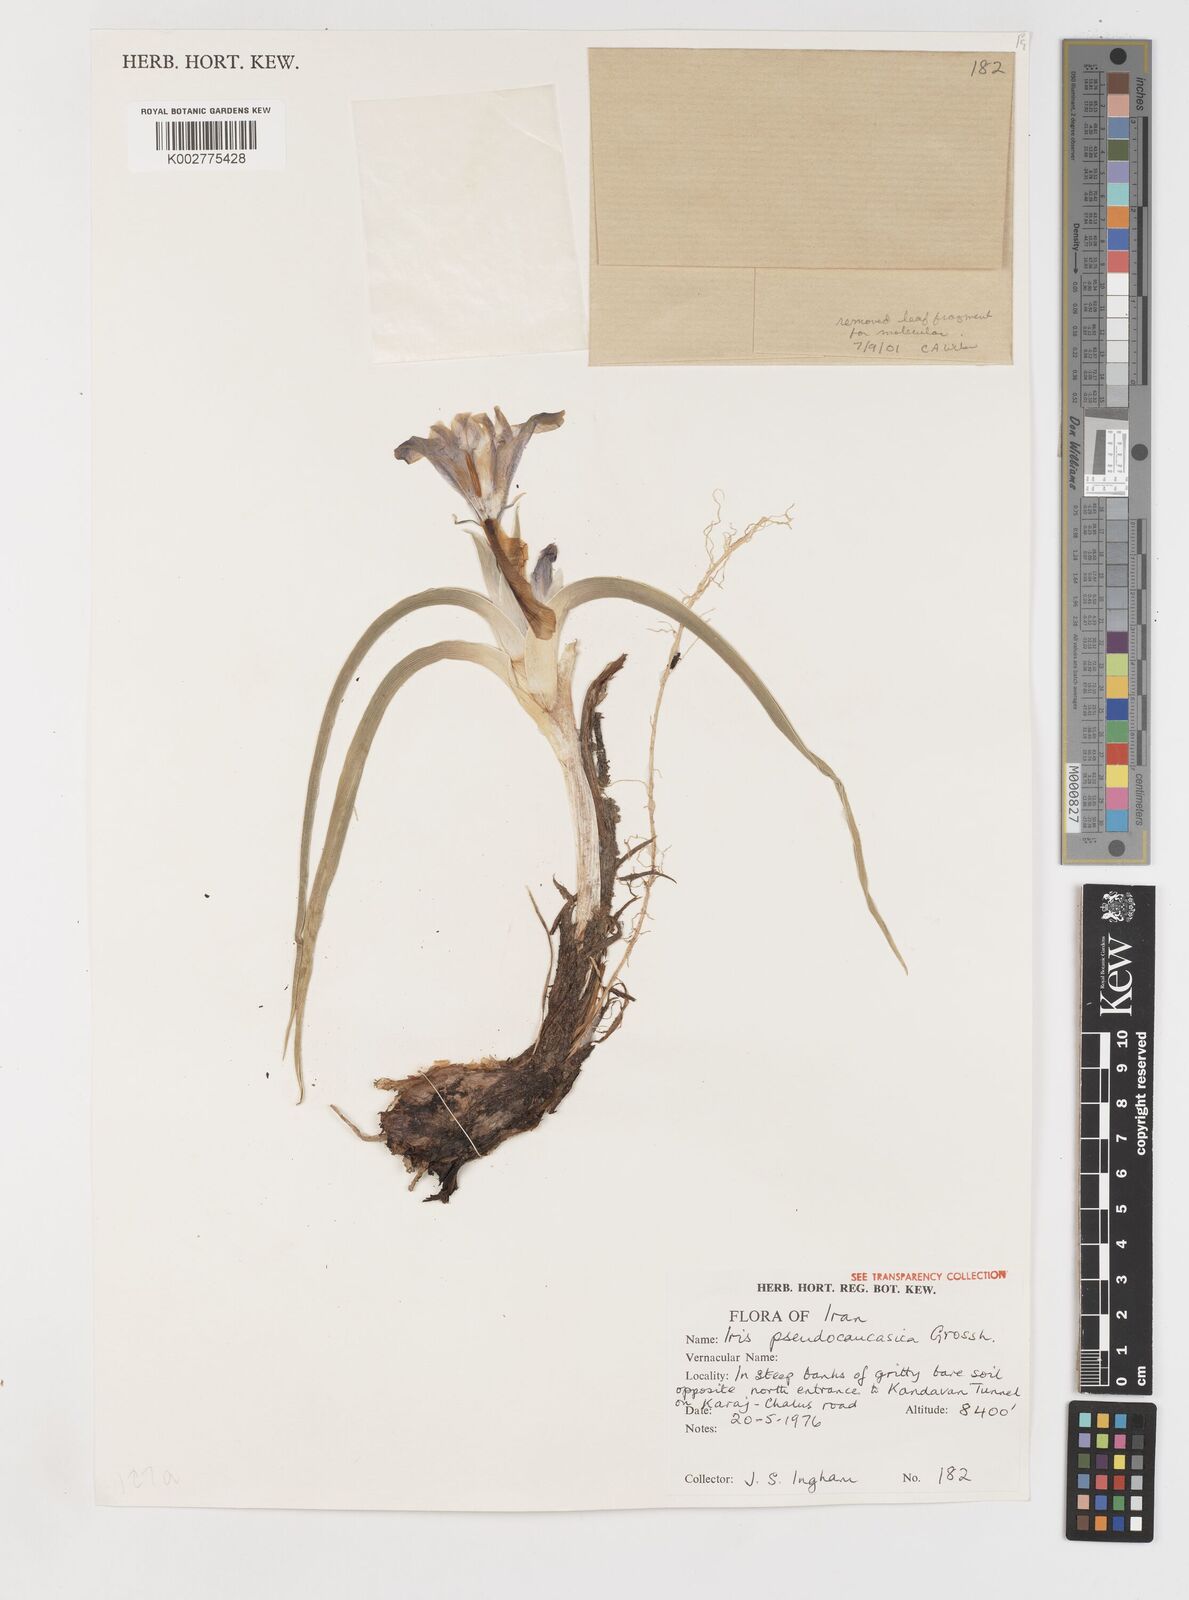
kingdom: Plantae
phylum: Tracheophyta
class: Liliopsida
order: Asparagales
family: Iridaceae
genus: Iris
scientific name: Iris pseudocaucasica
